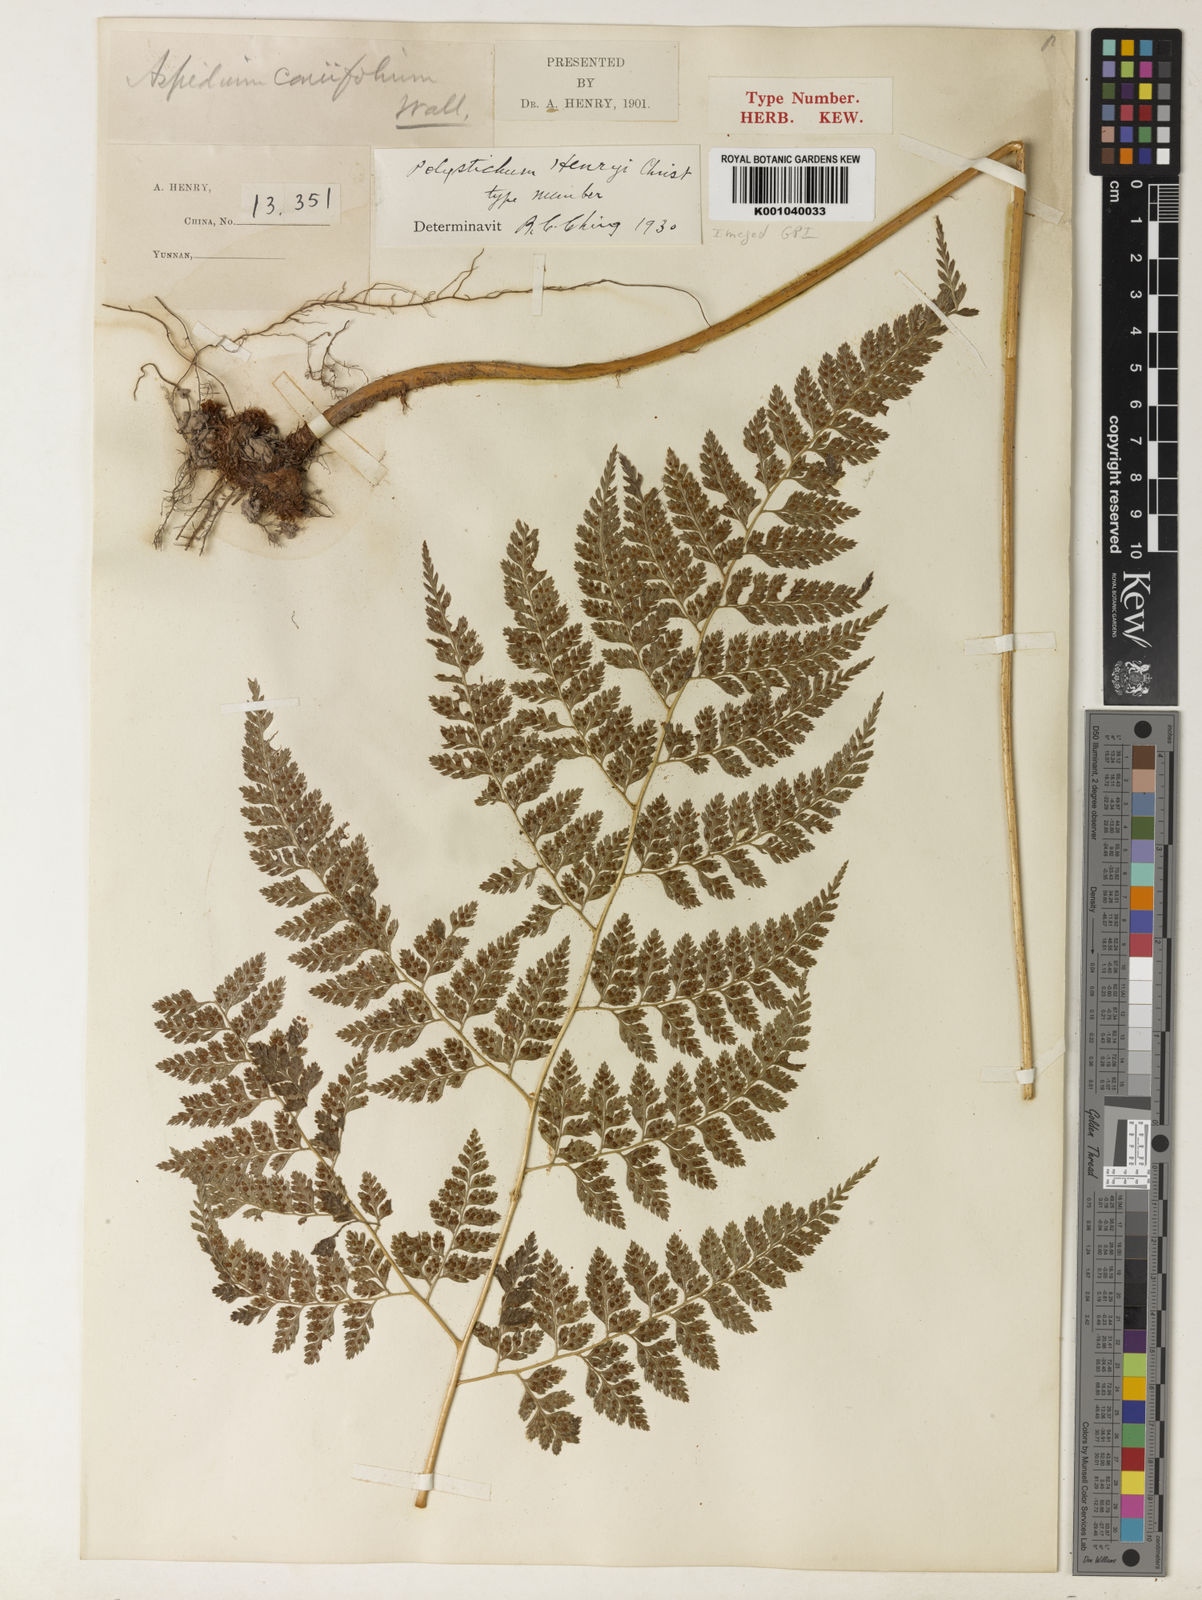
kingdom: Plantae
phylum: Tracheophyta
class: Polypodiopsida
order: Polypodiales
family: Dryopteridaceae
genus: Arachniodes
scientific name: Arachniodes henryi
